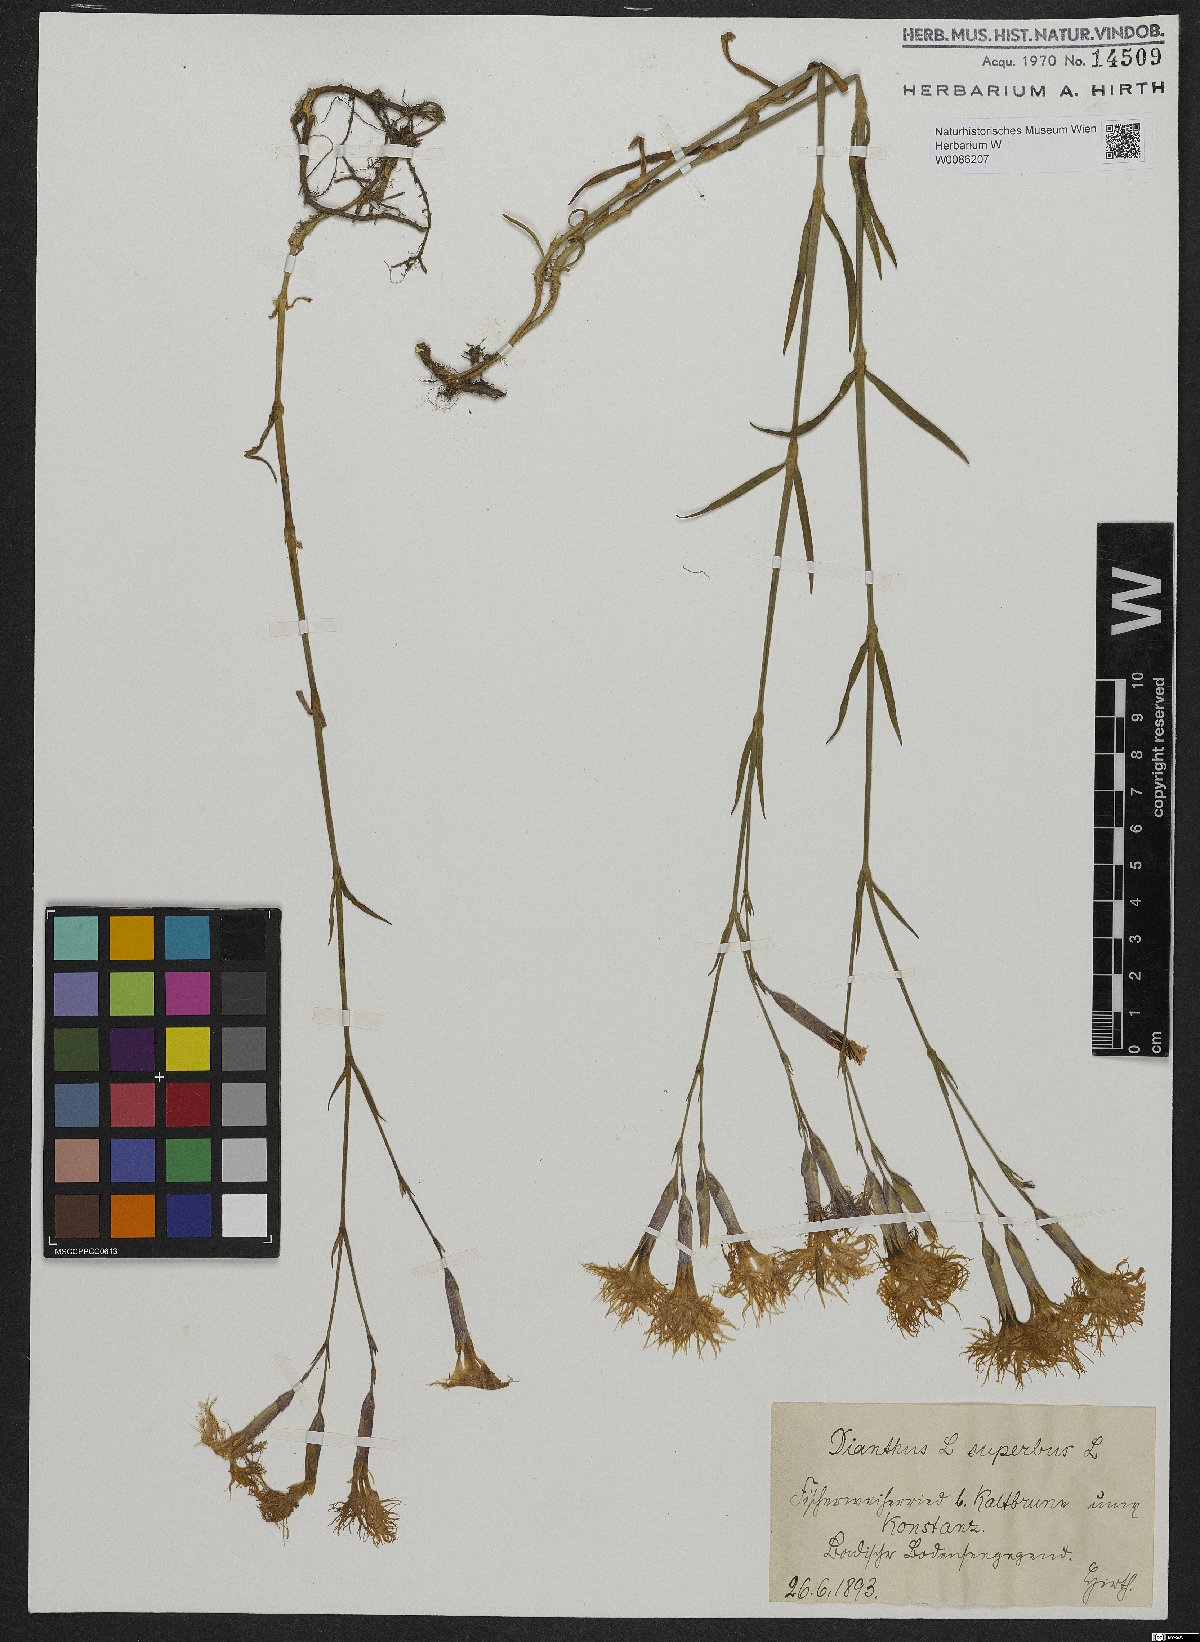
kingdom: Plantae
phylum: Tracheophyta
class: Magnoliopsida
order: Caryophyllales
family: Caryophyllaceae
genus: Dianthus
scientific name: Dianthus superbus
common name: Fringed pink
